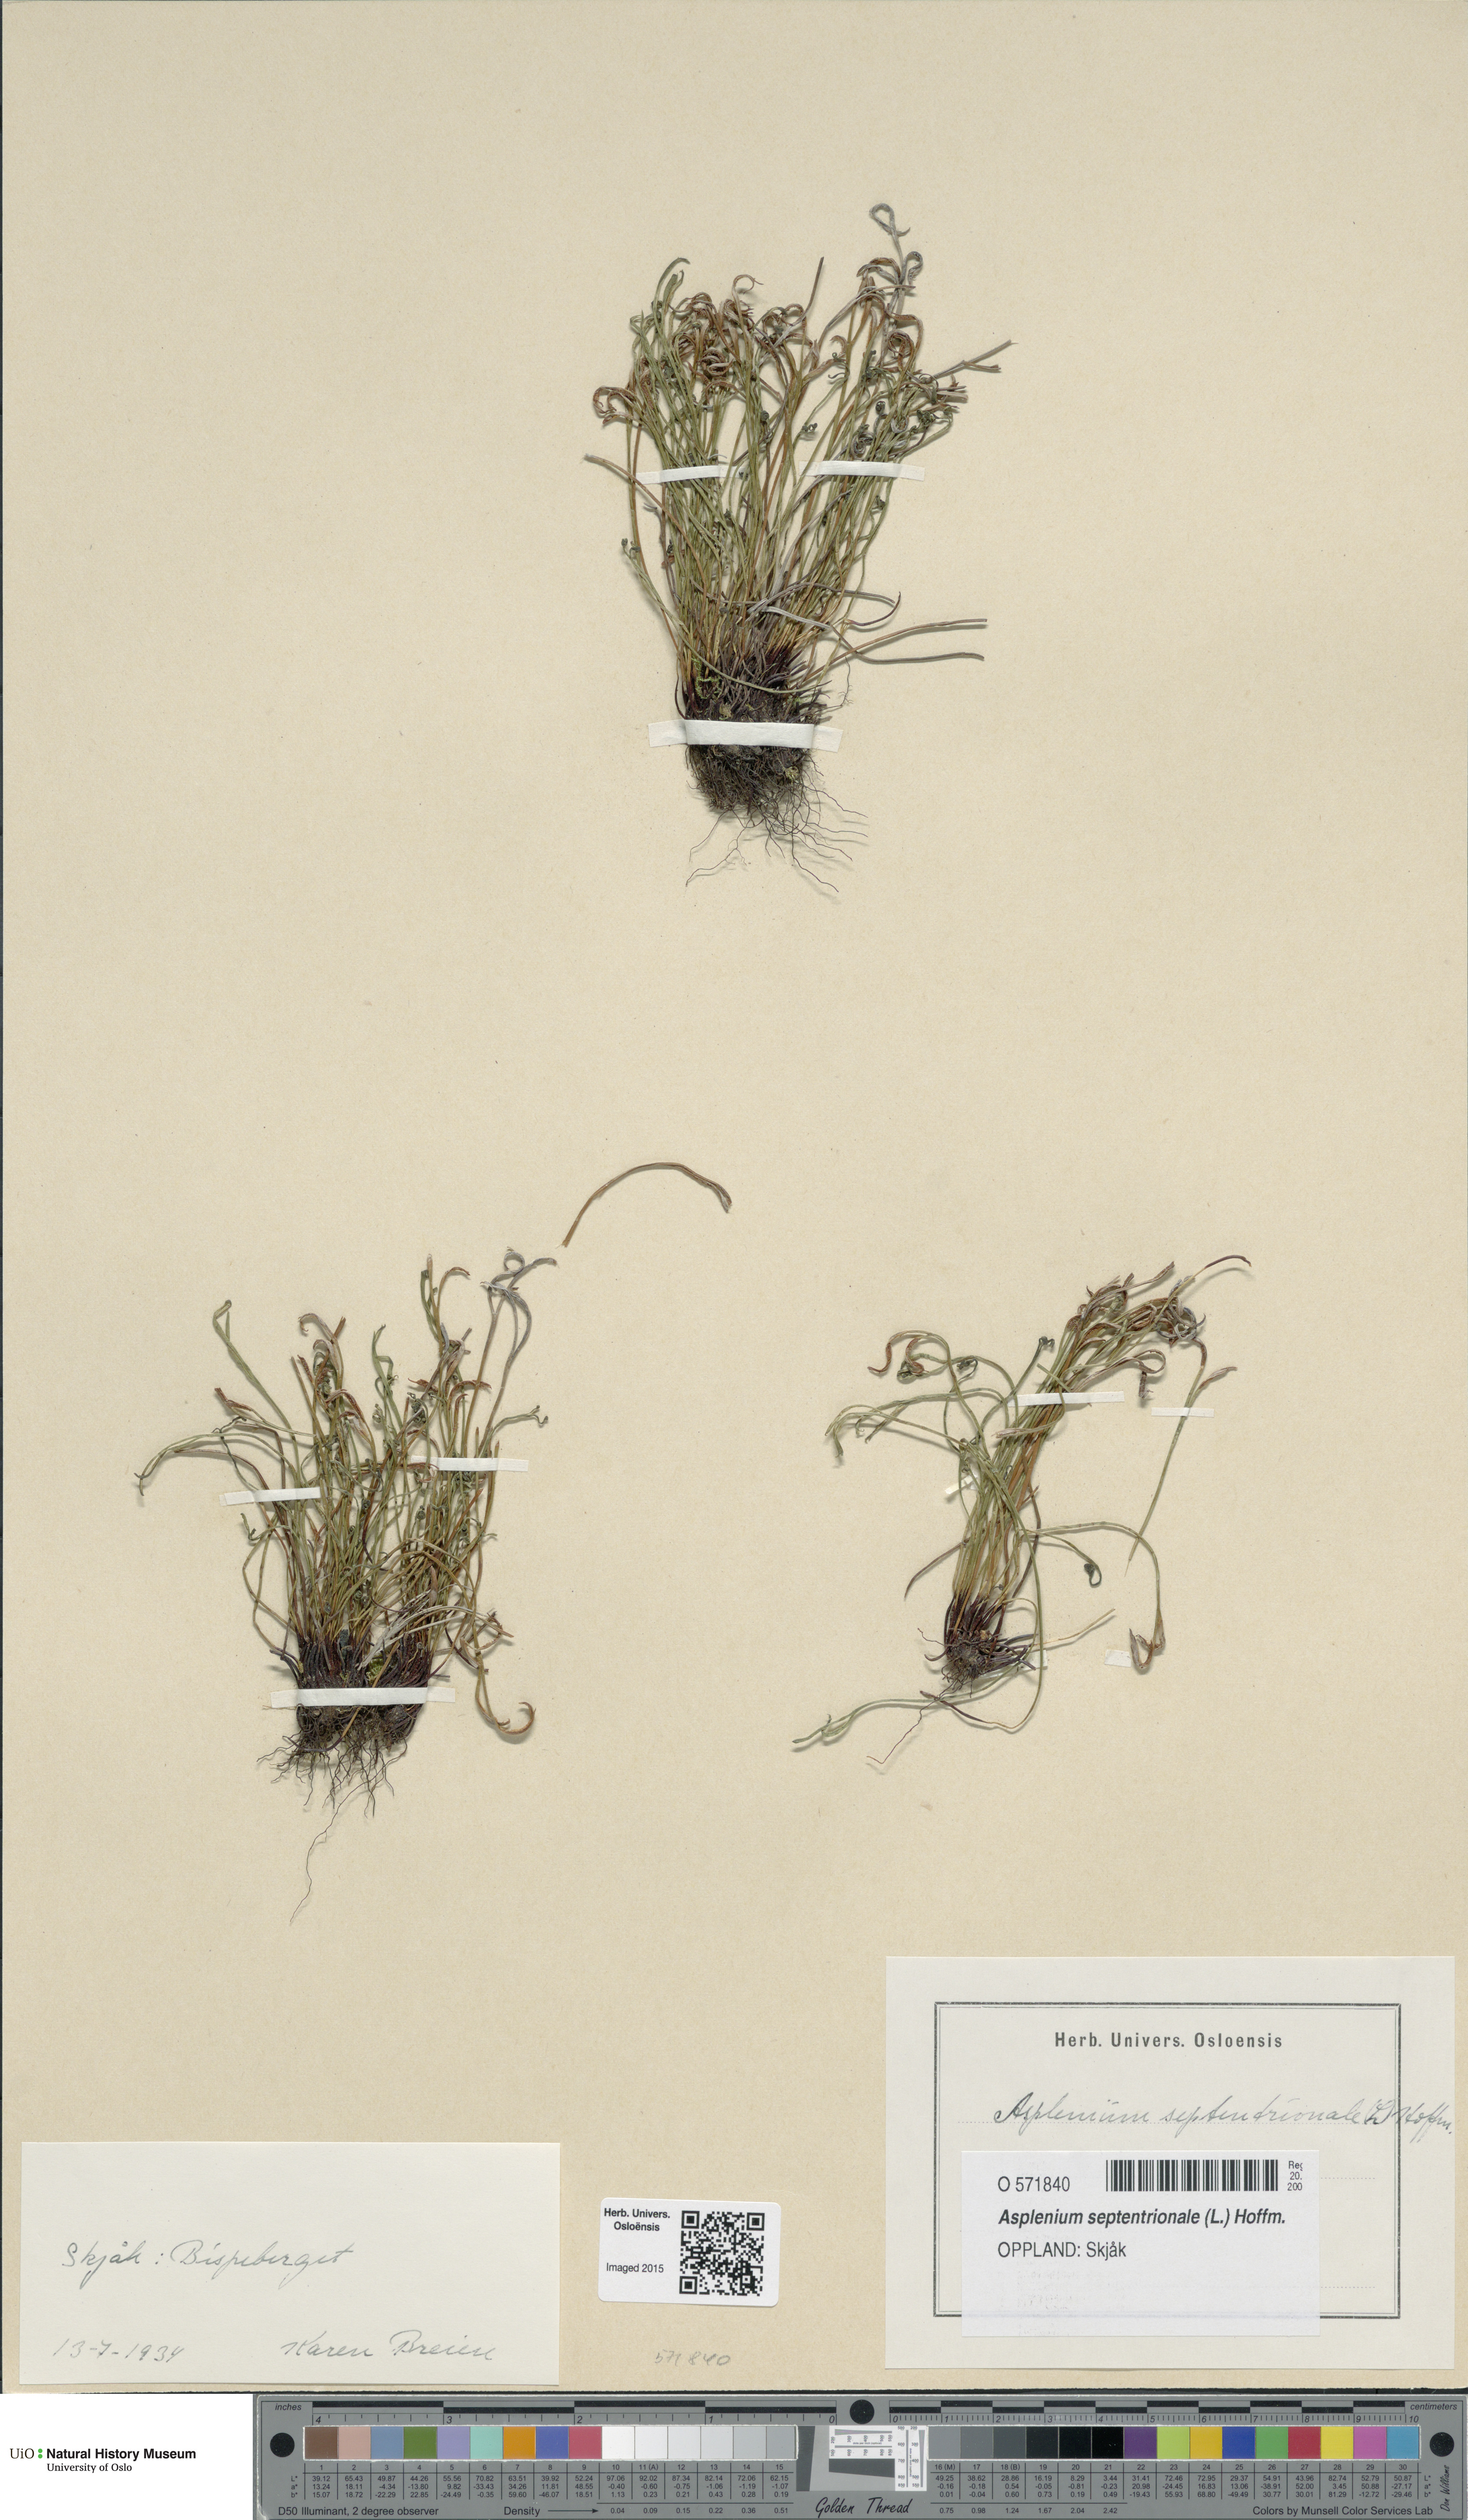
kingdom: Plantae
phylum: Tracheophyta
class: Polypodiopsida
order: Polypodiales
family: Aspleniaceae
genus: Asplenium
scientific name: Asplenium septentrionale
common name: Forked spleenwort
